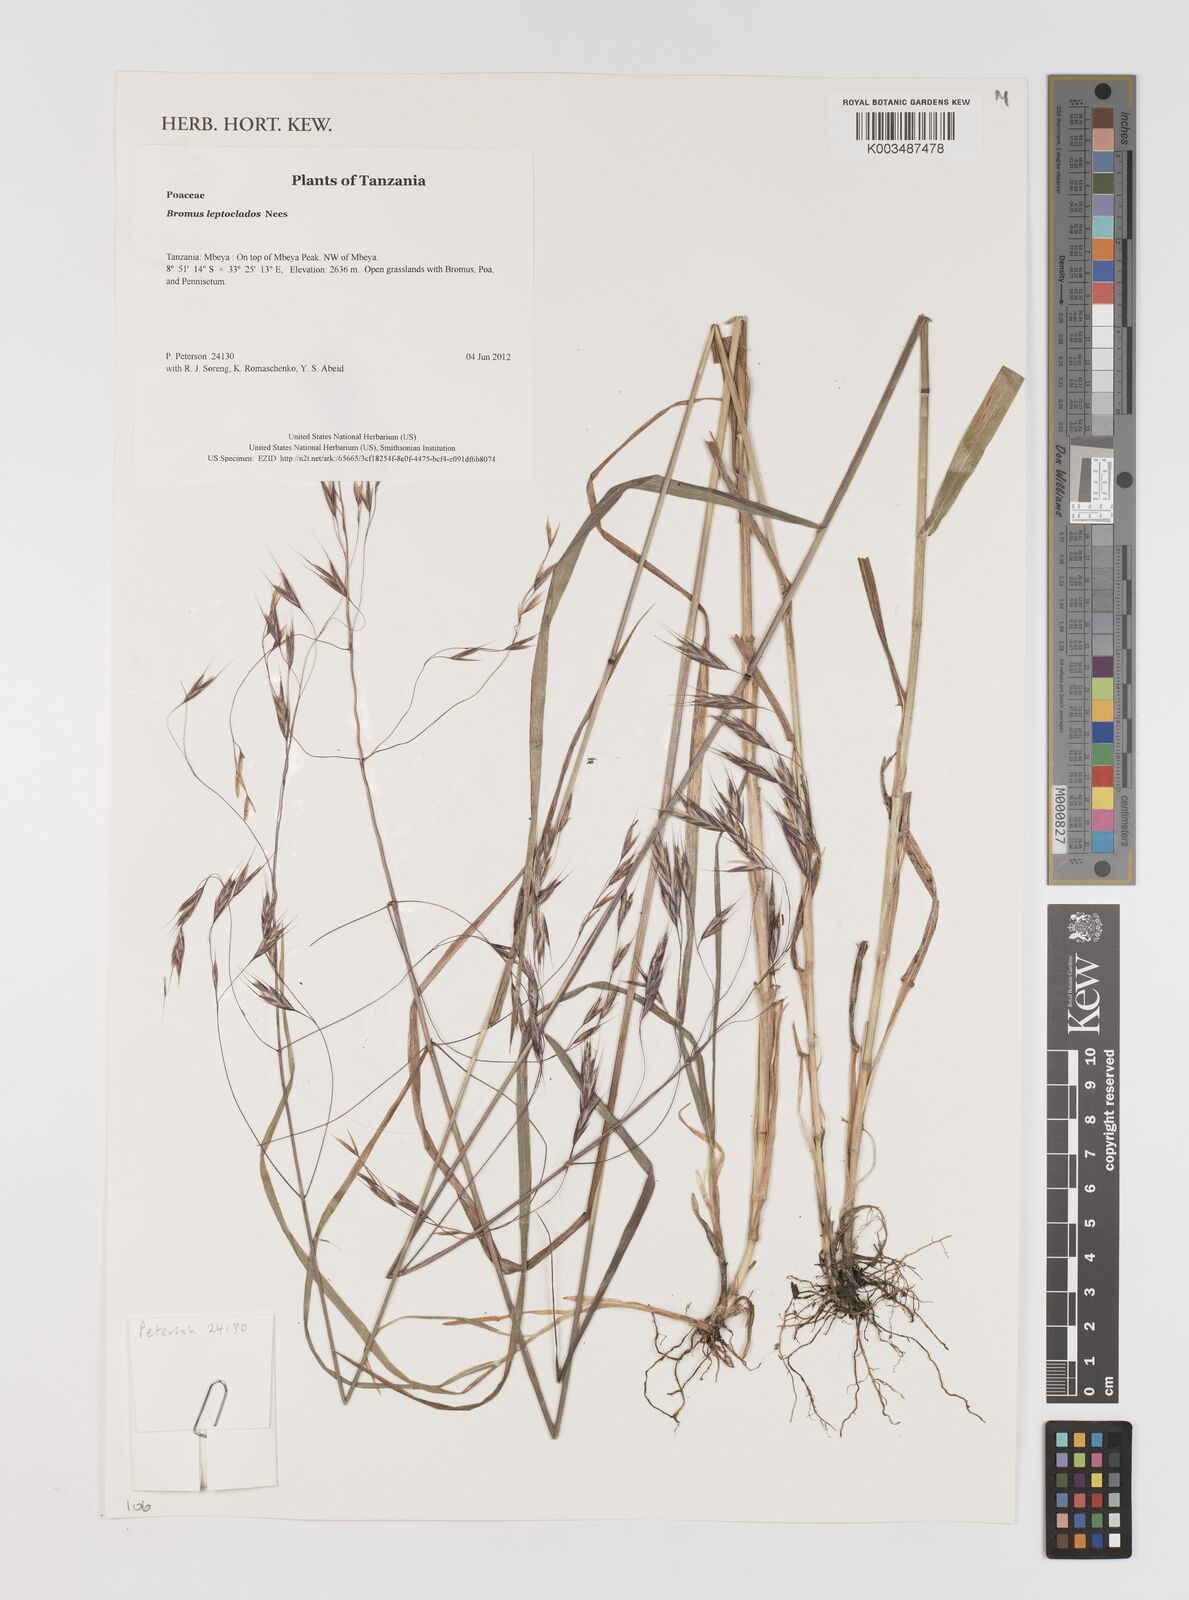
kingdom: Plantae
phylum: Tracheophyta
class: Liliopsida
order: Poales
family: Poaceae
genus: Bromus
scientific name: Bromus leptoclados
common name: Mountain bromegrass
